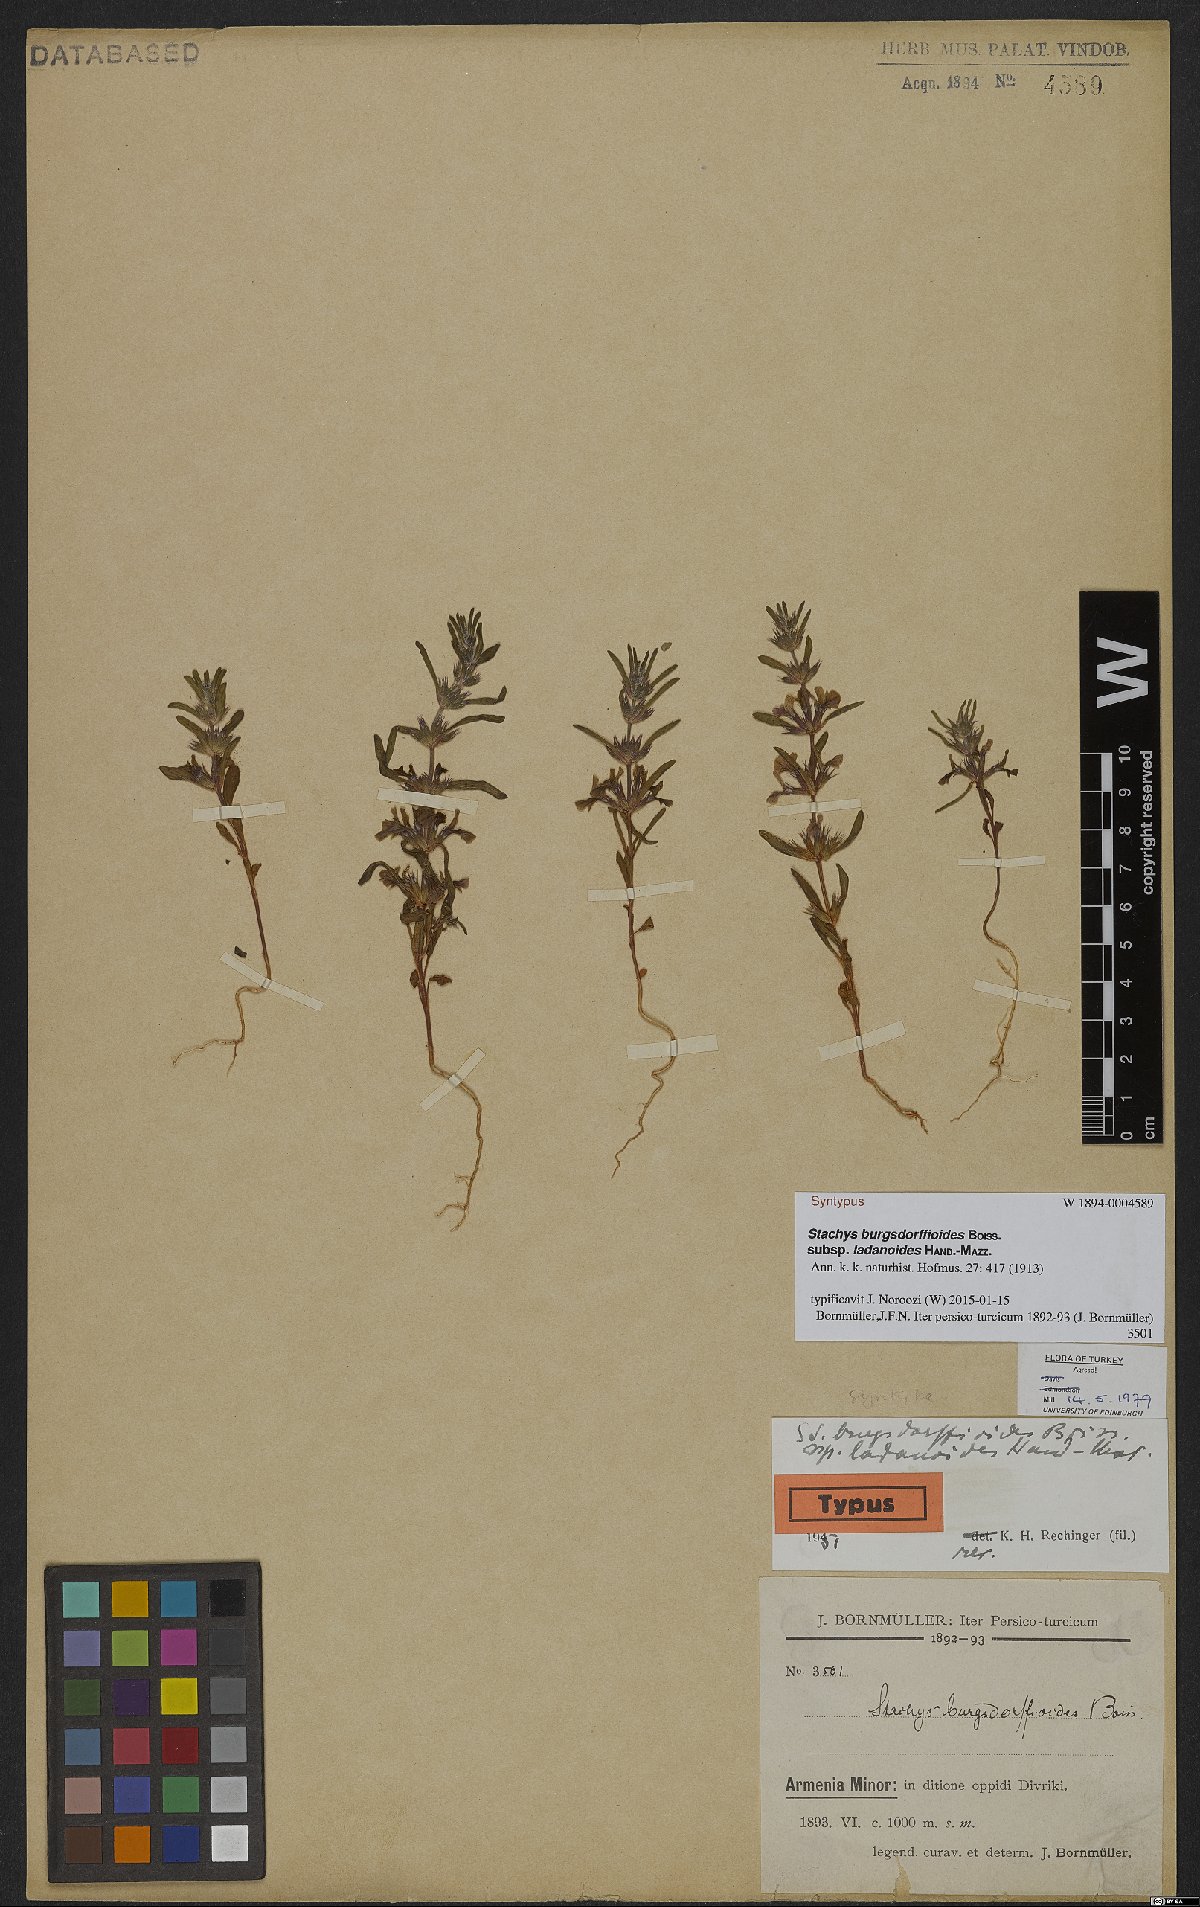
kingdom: Plantae
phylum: Tracheophyta
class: Magnoliopsida
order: Lamiales
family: Lamiaceae
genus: Stachys
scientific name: Stachys burgsdorffioides
